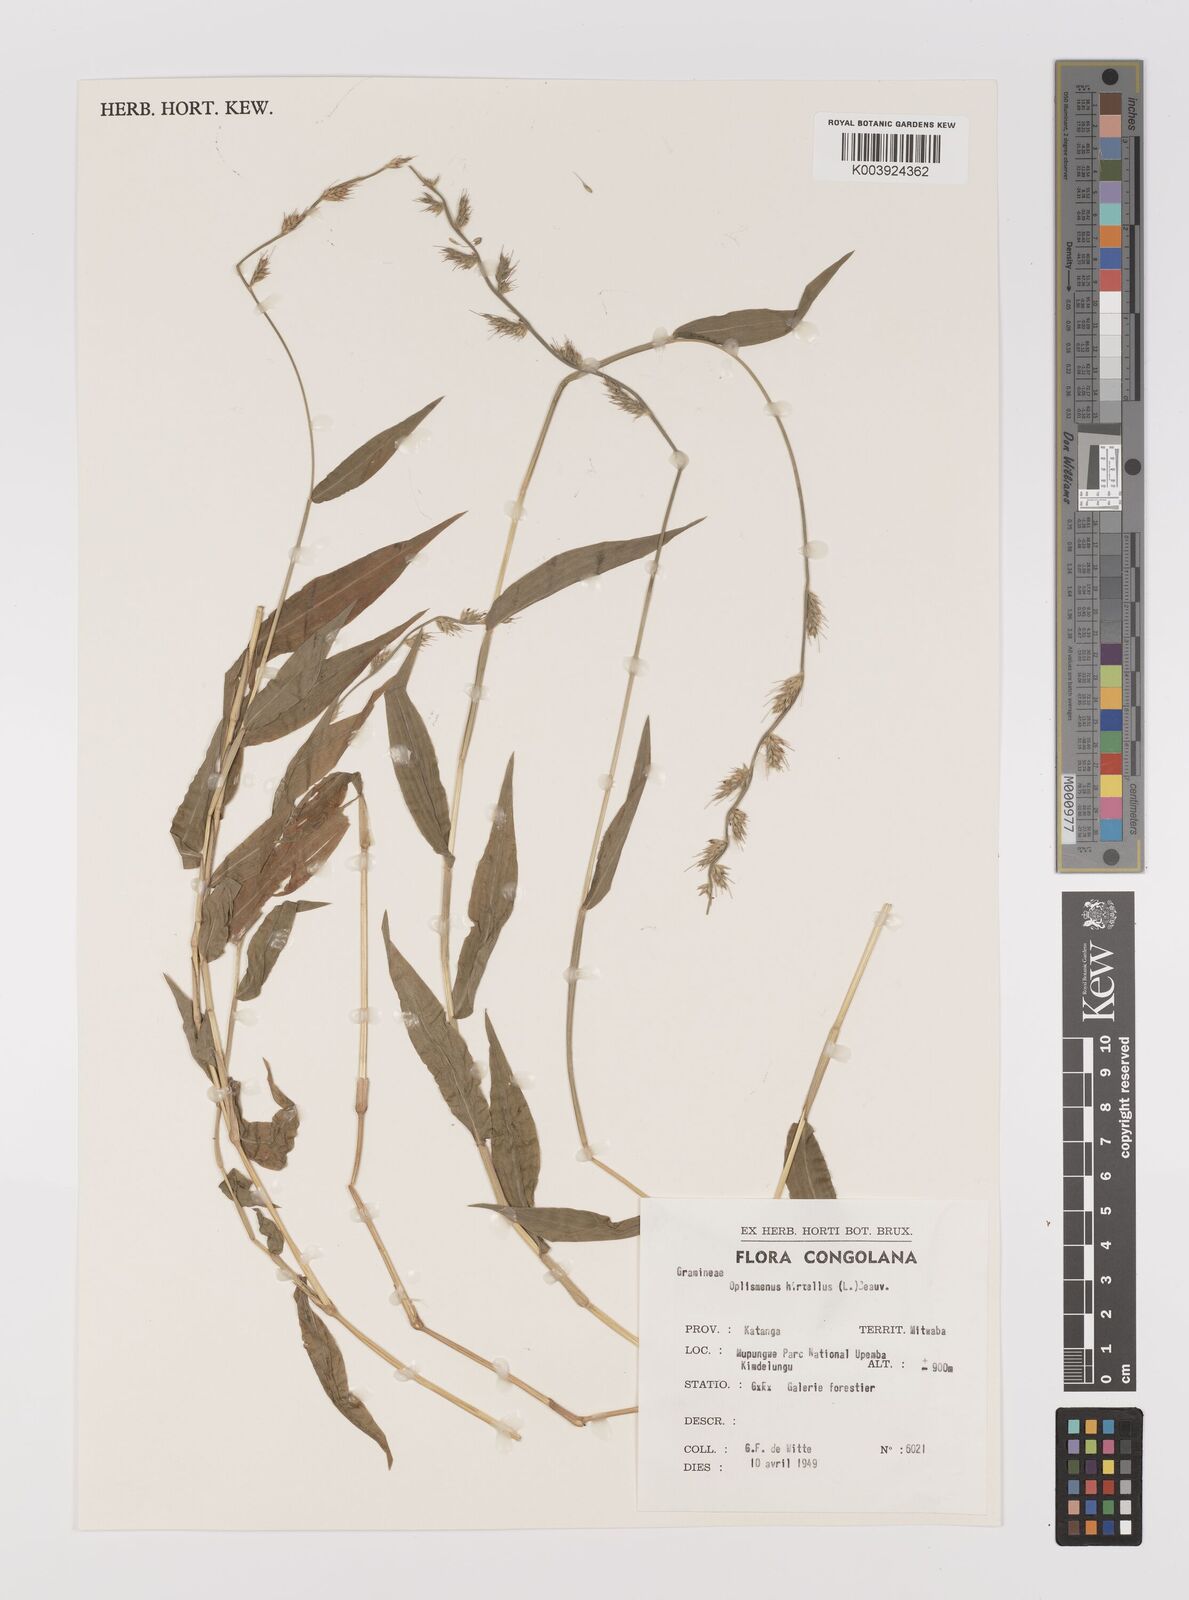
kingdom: Plantae
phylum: Tracheophyta
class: Liliopsida
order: Poales
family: Poaceae
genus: Oplismenus
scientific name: Oplismenus hirtellus
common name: Basketgrass
